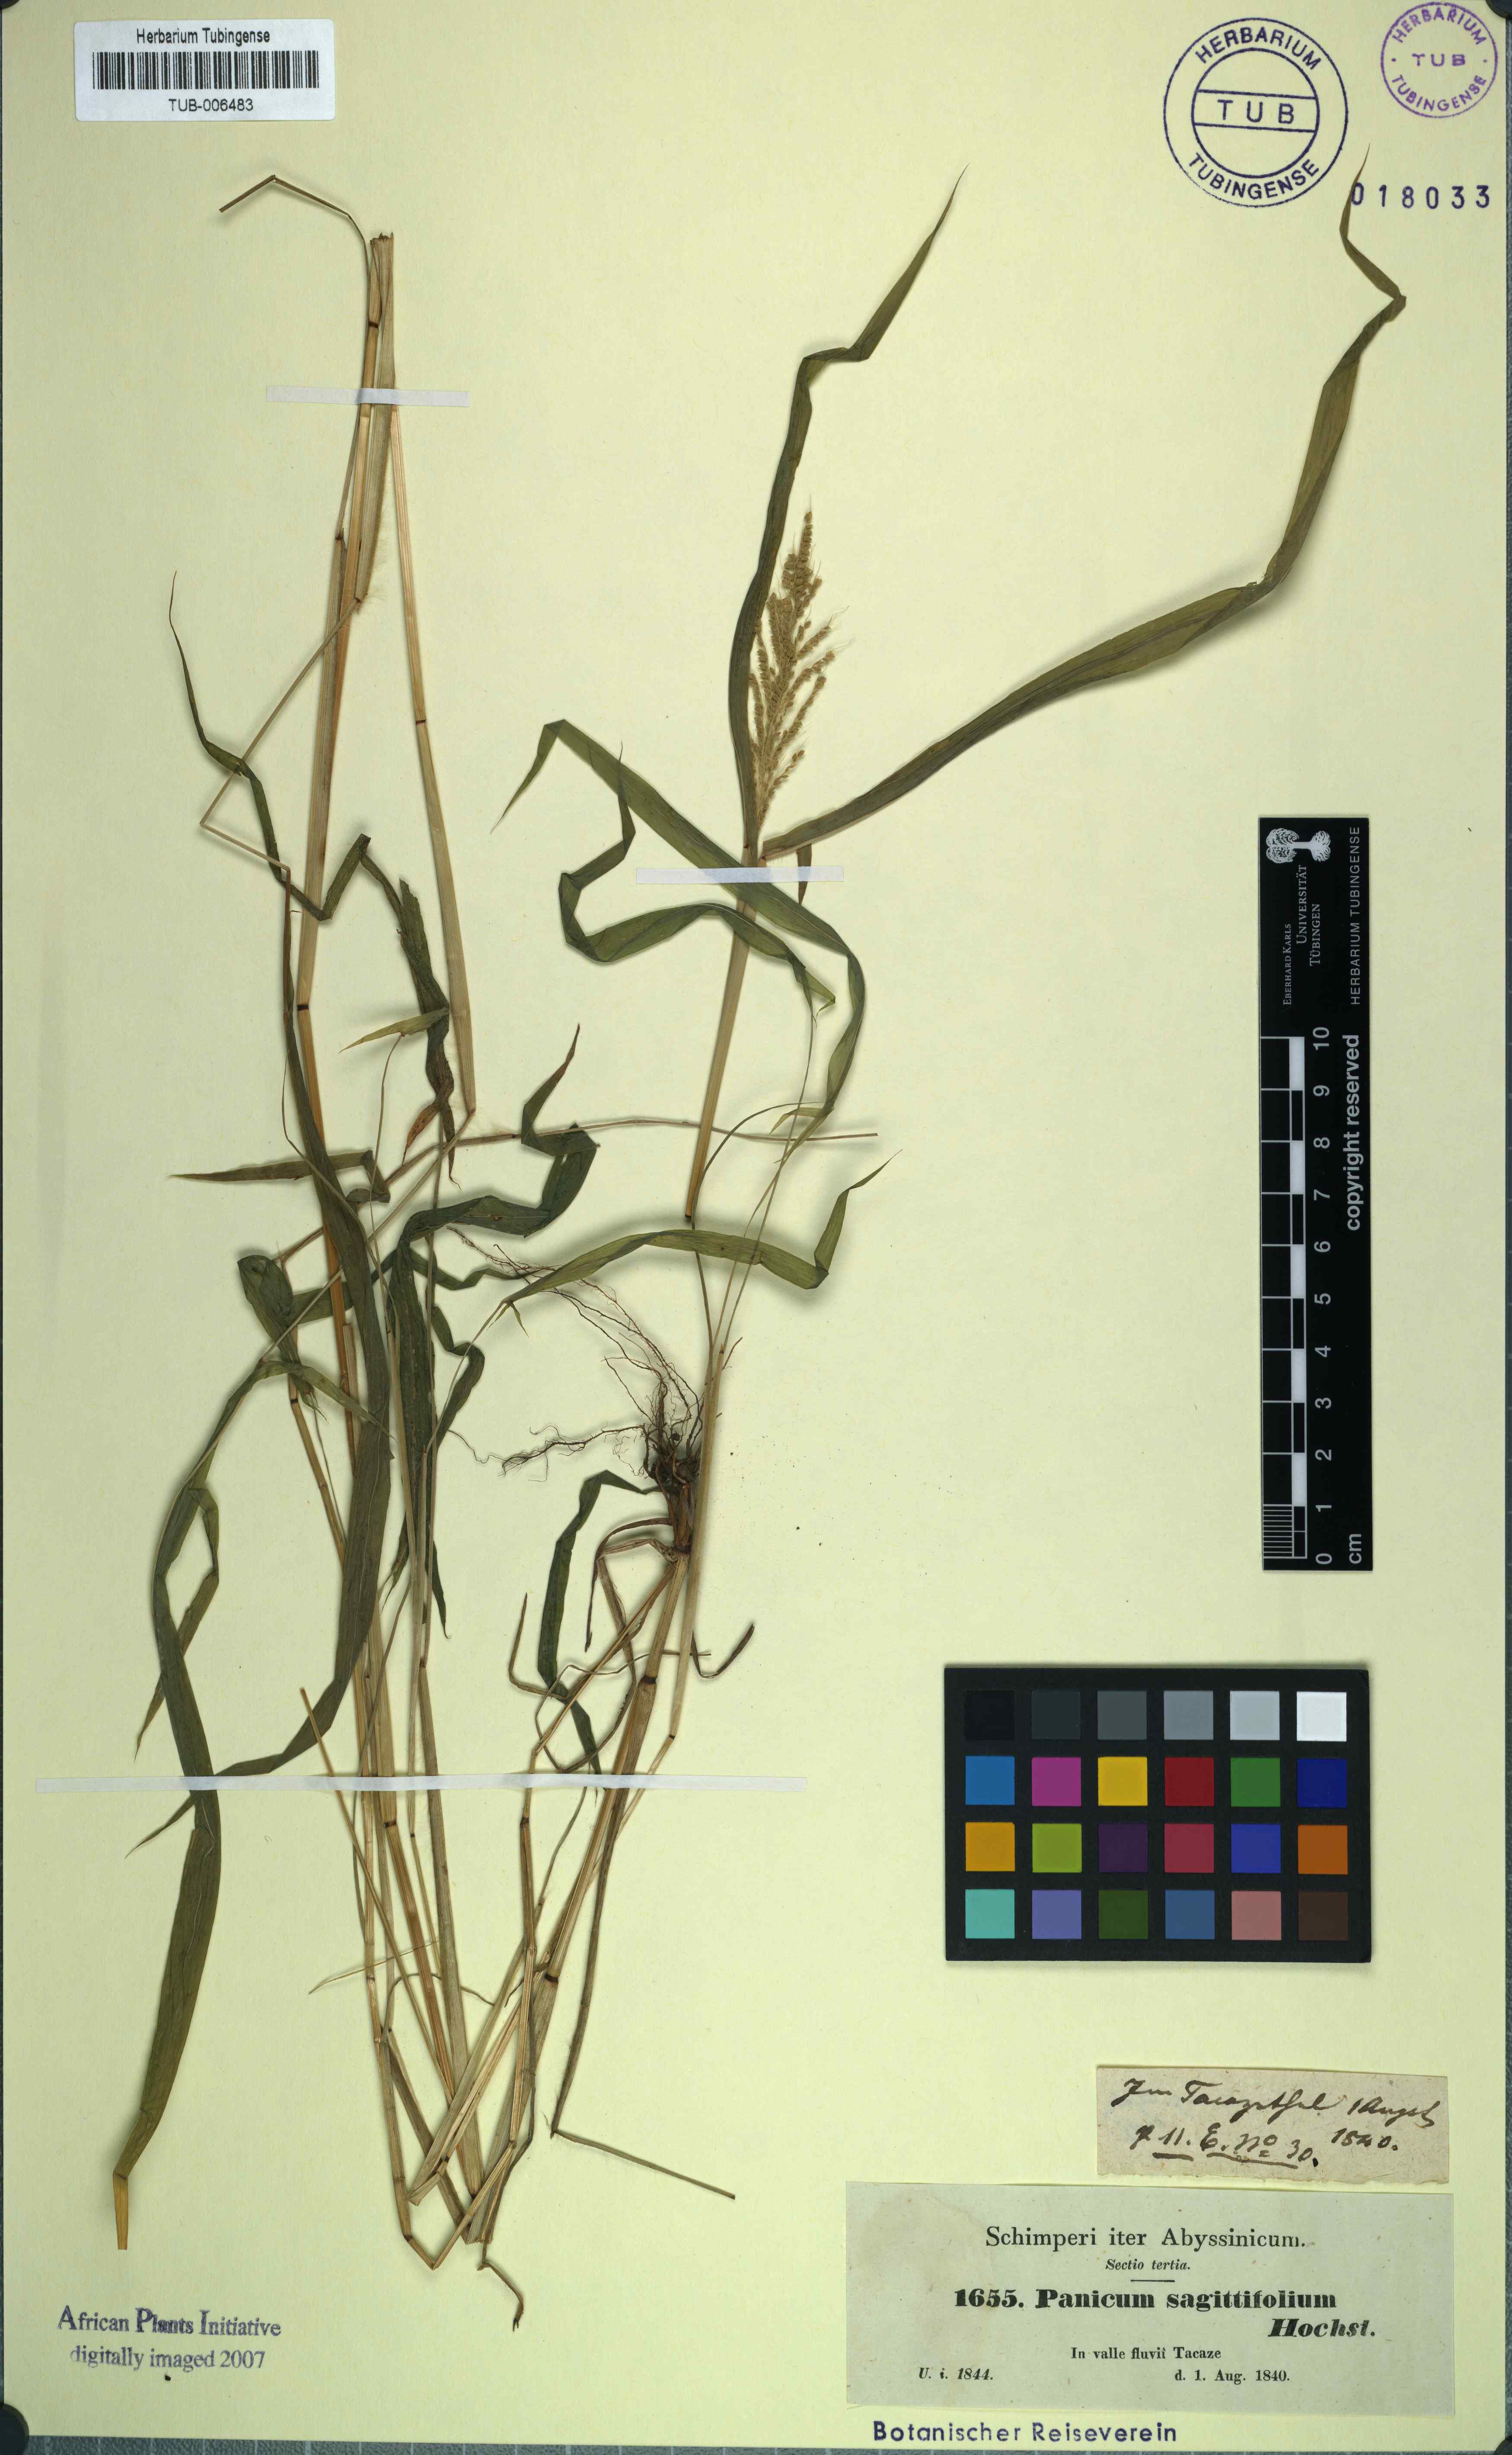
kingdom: Plantae
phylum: Tracheophyta
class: Liliopsida
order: Poales
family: Poaceae
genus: Setaria
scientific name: Setaria sagittifolia
